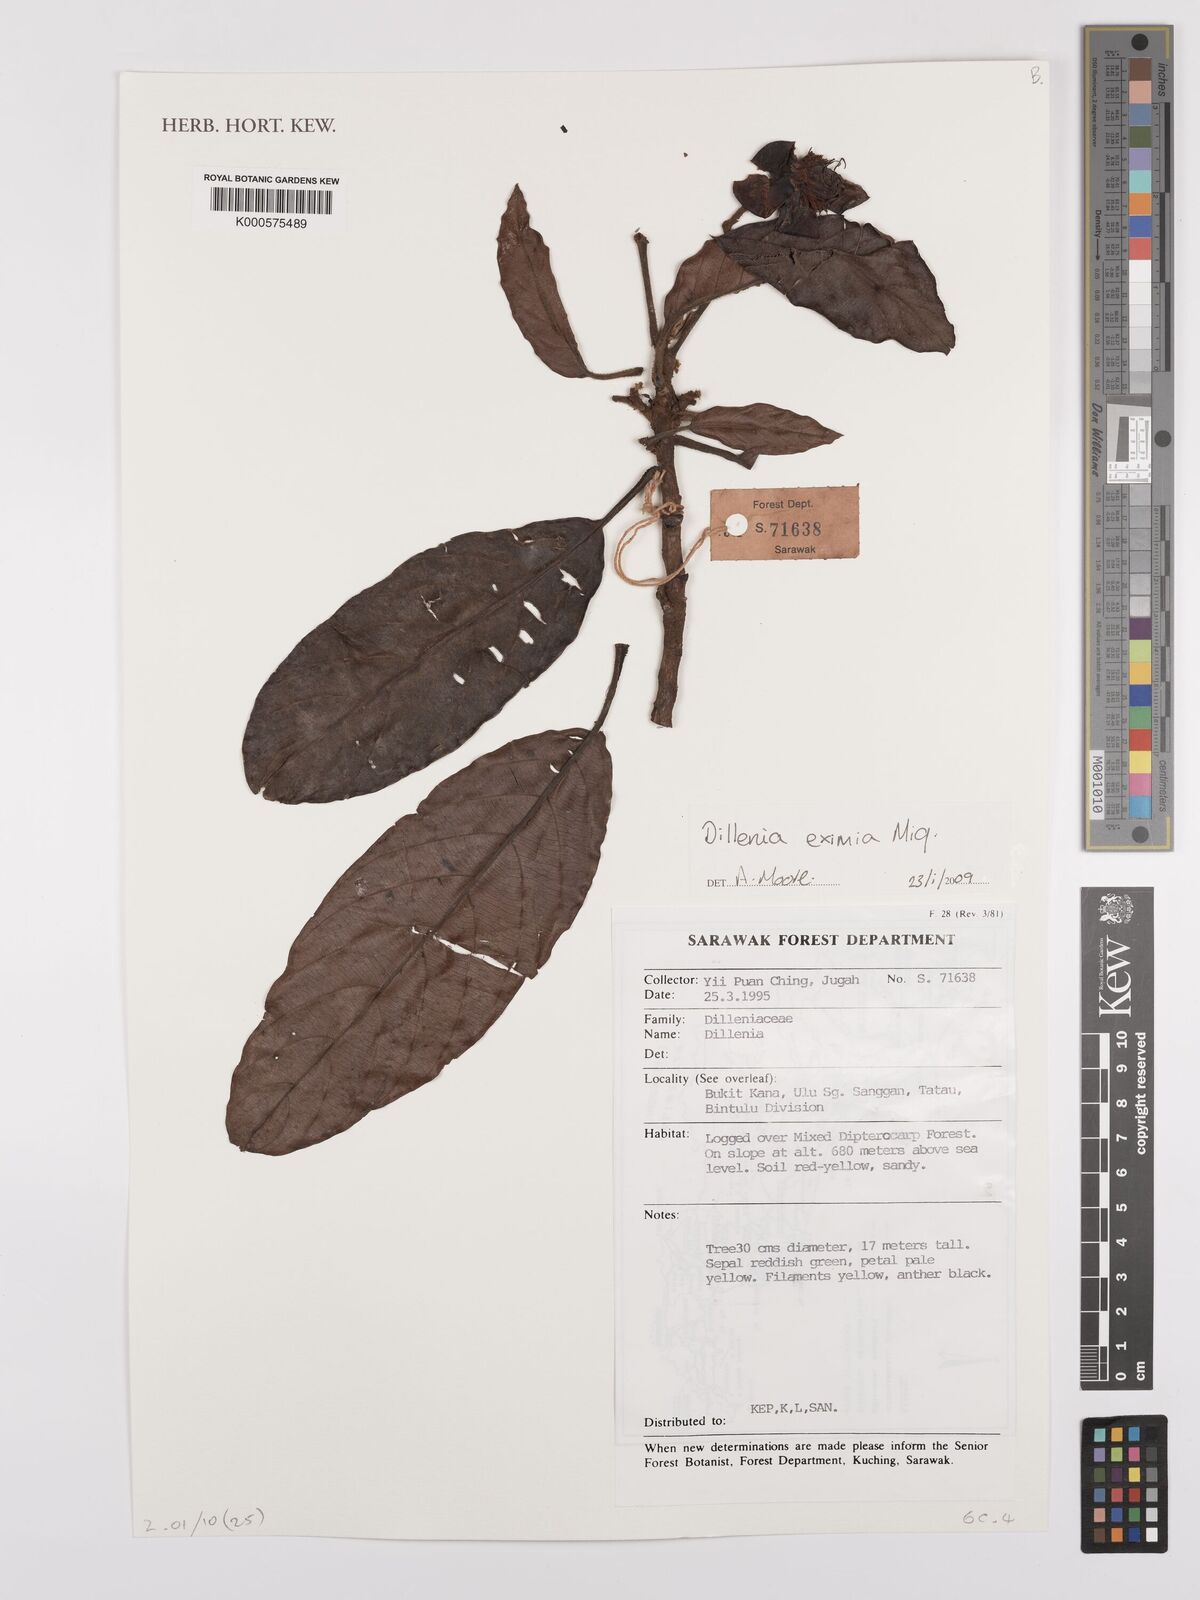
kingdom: Plantae
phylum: Tracheophyta
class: Magnoliopsida
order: Dilleniales
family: Dilleniaceae
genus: Dillenia
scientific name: Dillenia grandifolia
